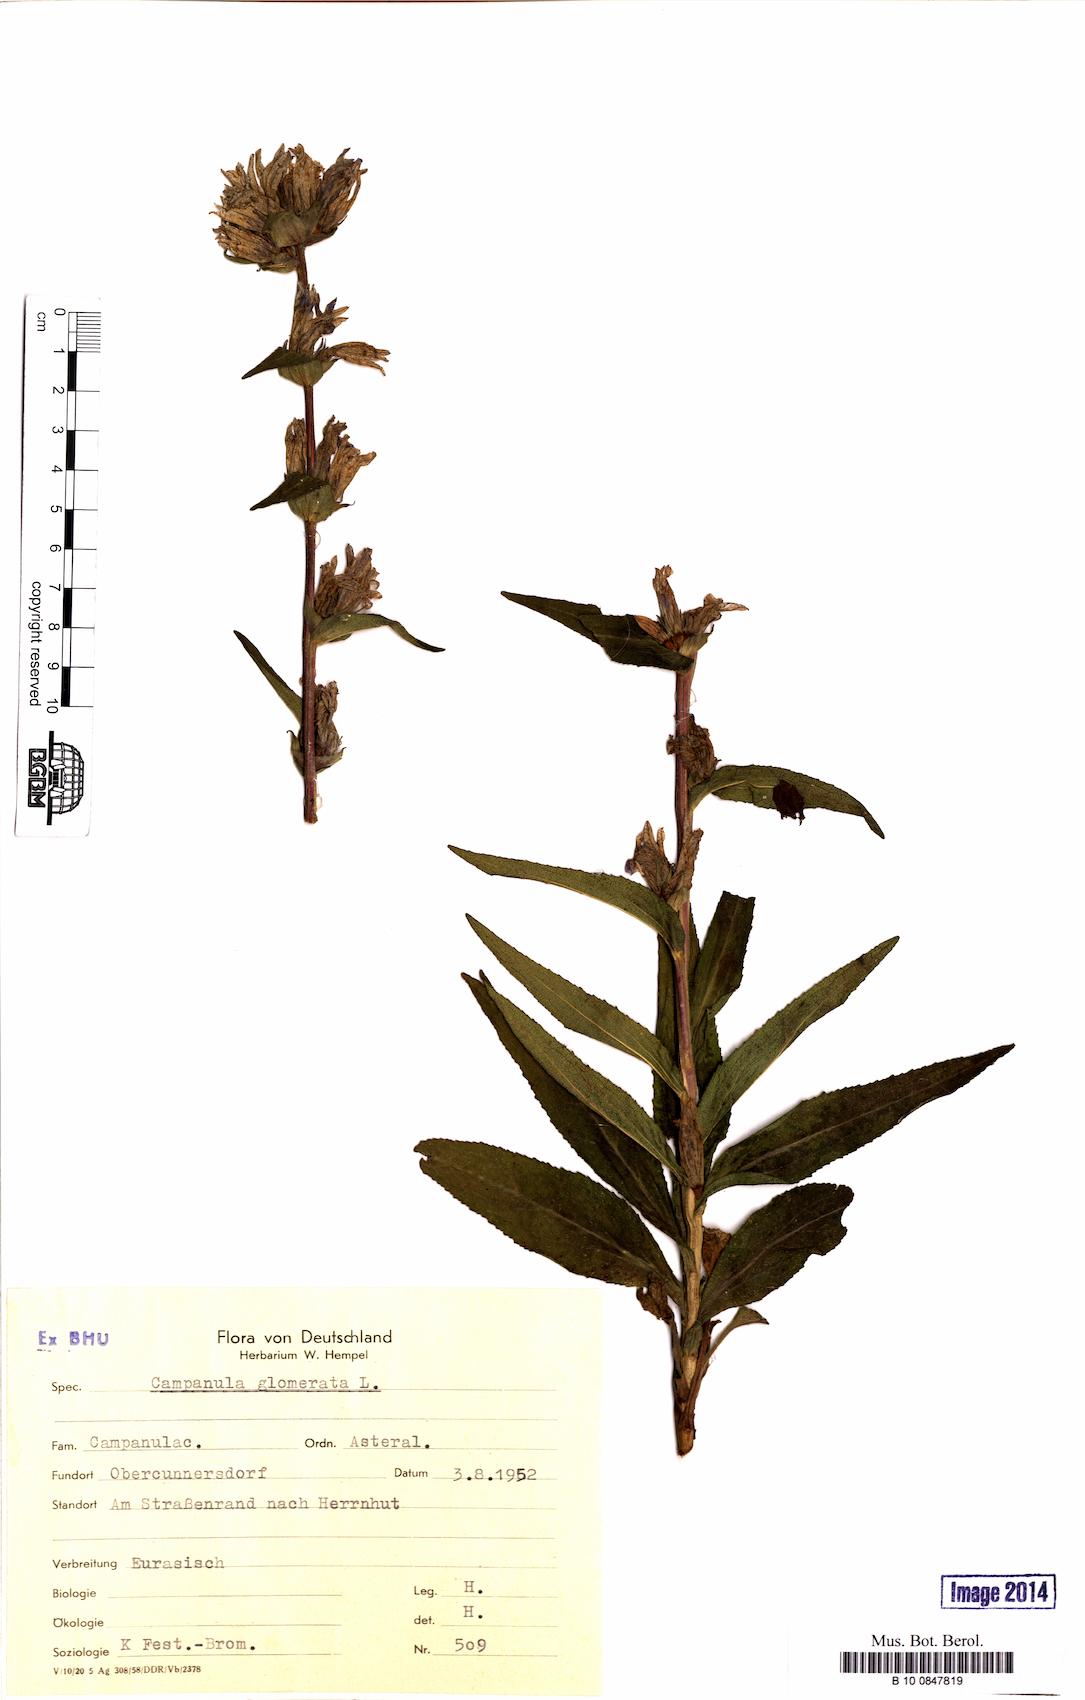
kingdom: Plantae
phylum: Tracheophyta
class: Magnoliopsida
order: Asterales
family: Campanulaceae
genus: Campanula
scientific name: Campanula glomerata
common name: Clustered bellflower
